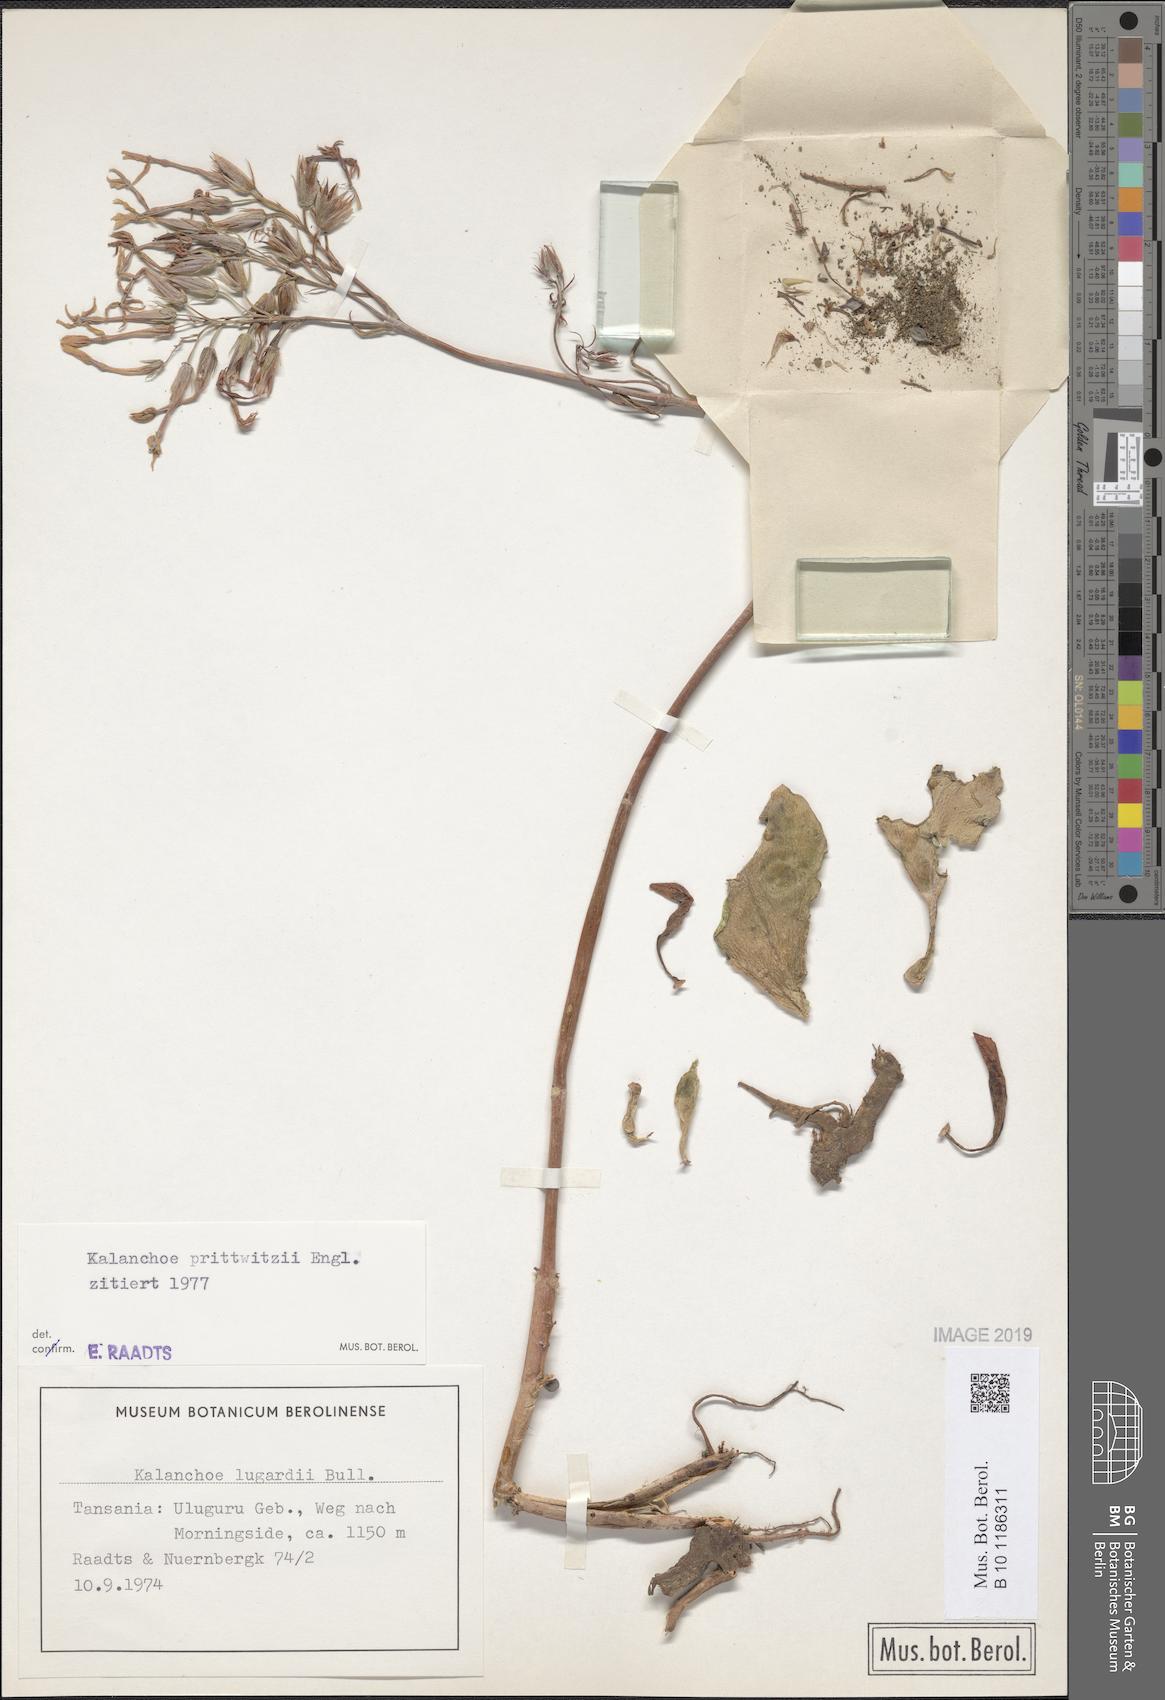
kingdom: Plantae
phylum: Tracheophyta
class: Magnoliopsida
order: Saxifragales
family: Crassulaceae
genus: Kalanchoe
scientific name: Kalanchoe prittwitzii
